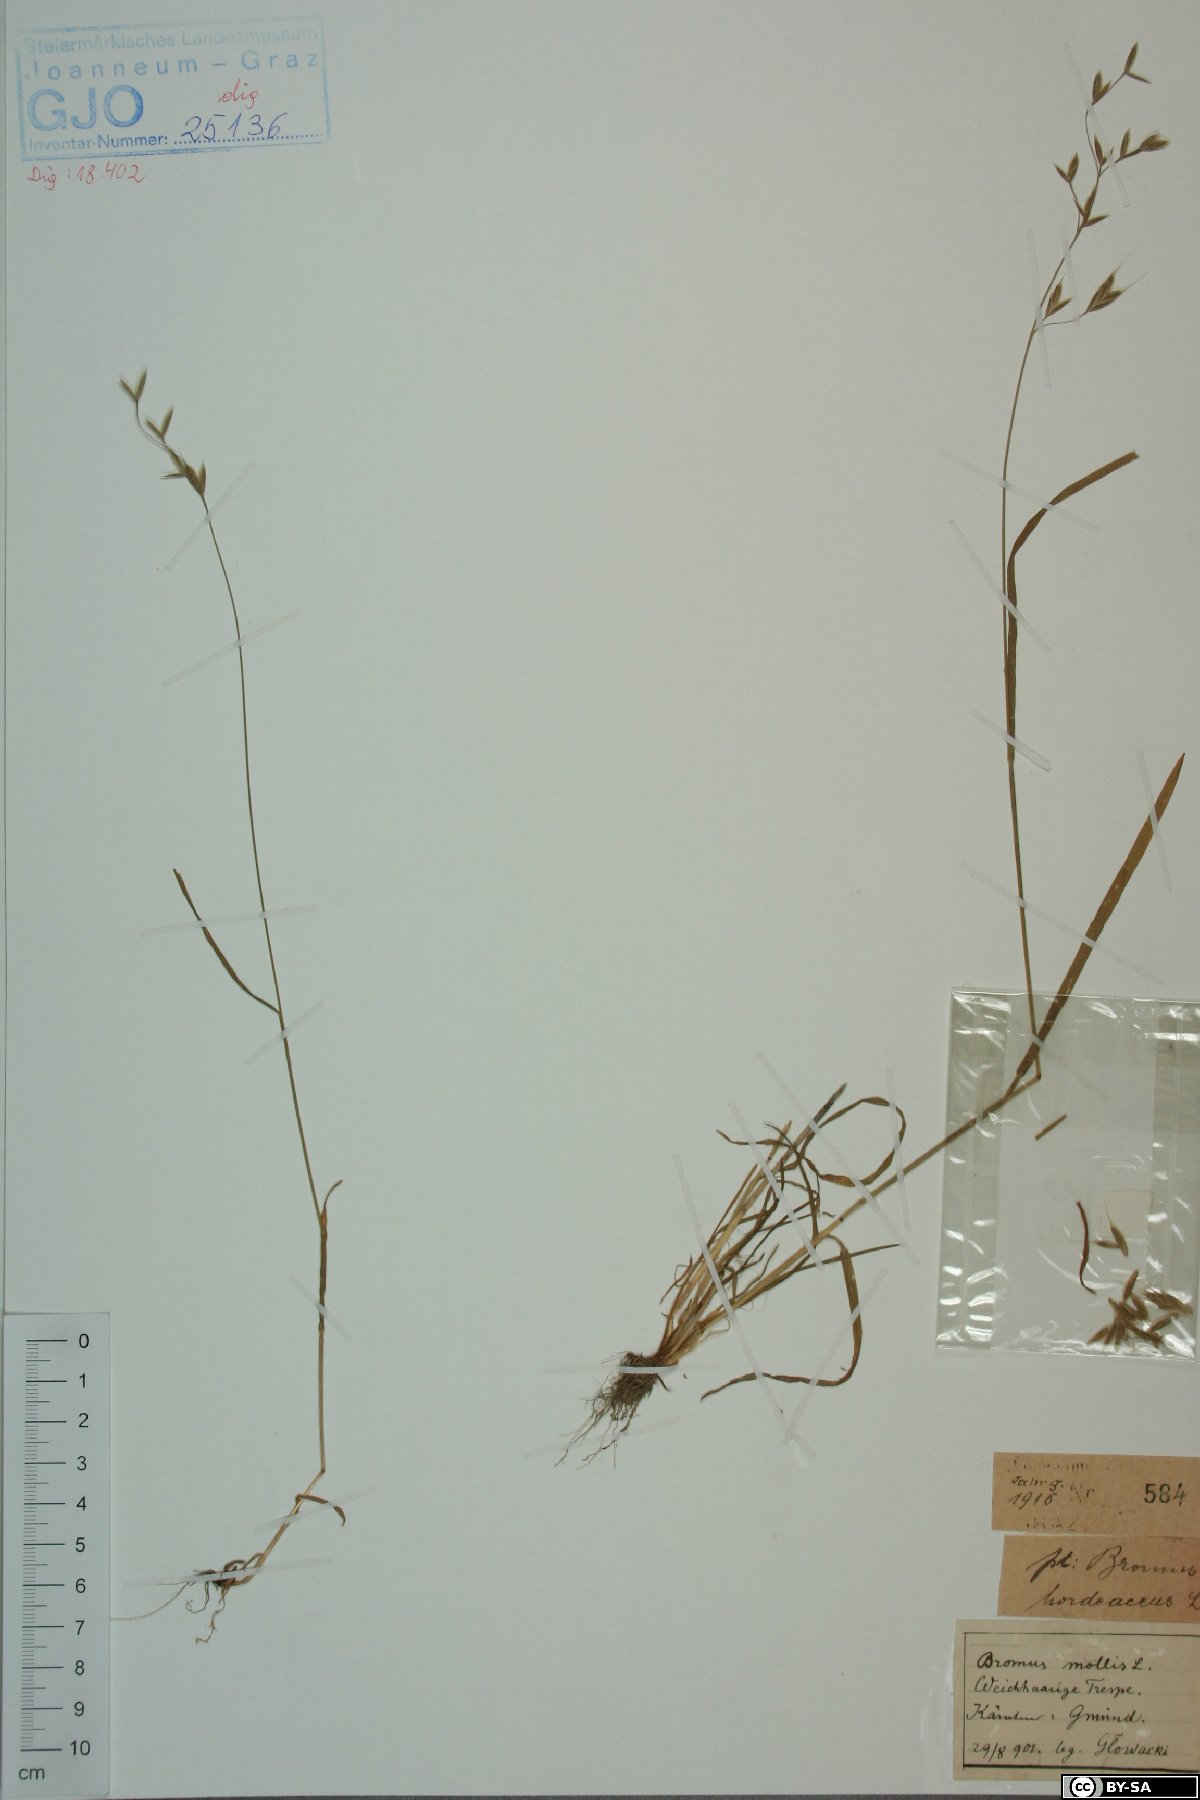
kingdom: Plantae
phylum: Tracheophyta
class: Liliopsida
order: Poales
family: Poaceae
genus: Bromus
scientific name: Bromus hordeaceus
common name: Soft brome
